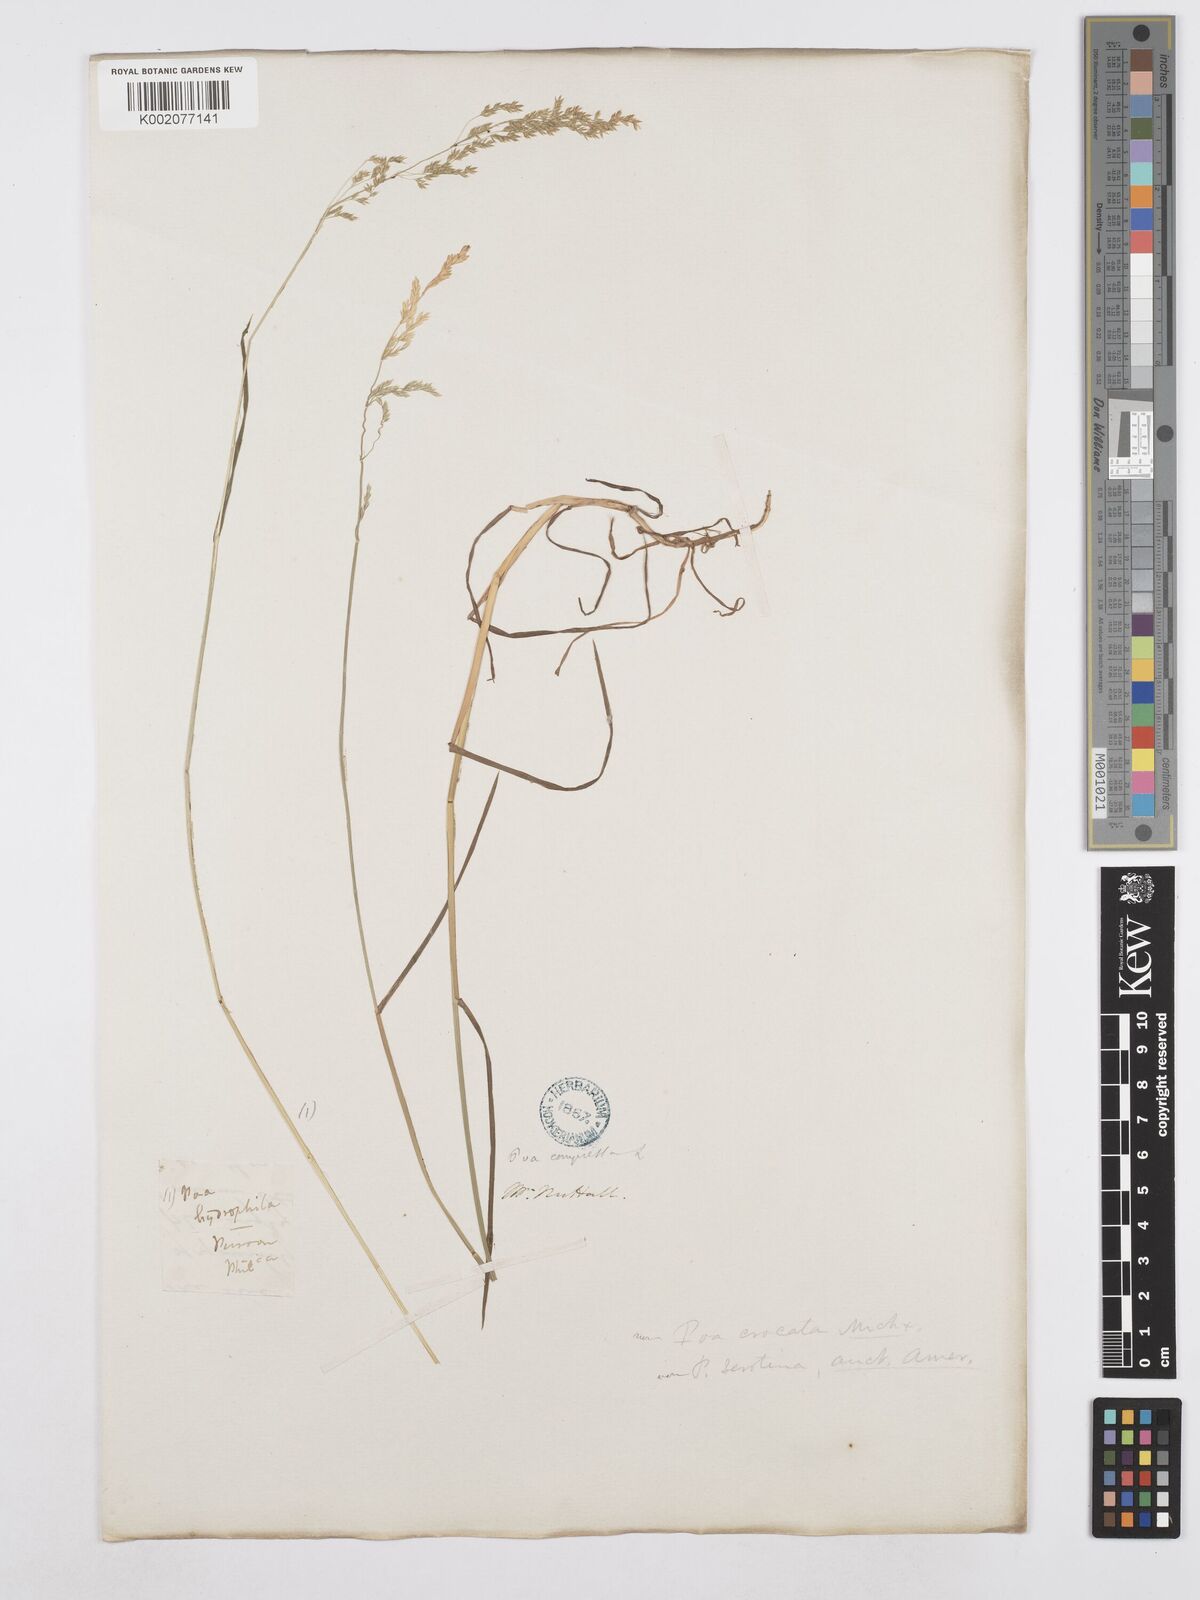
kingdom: Plantae
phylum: Tracheophyta
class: Liliopsida
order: Poales
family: Poaceae
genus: Poa
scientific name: Poa palustris
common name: Swamp meadow-grass
